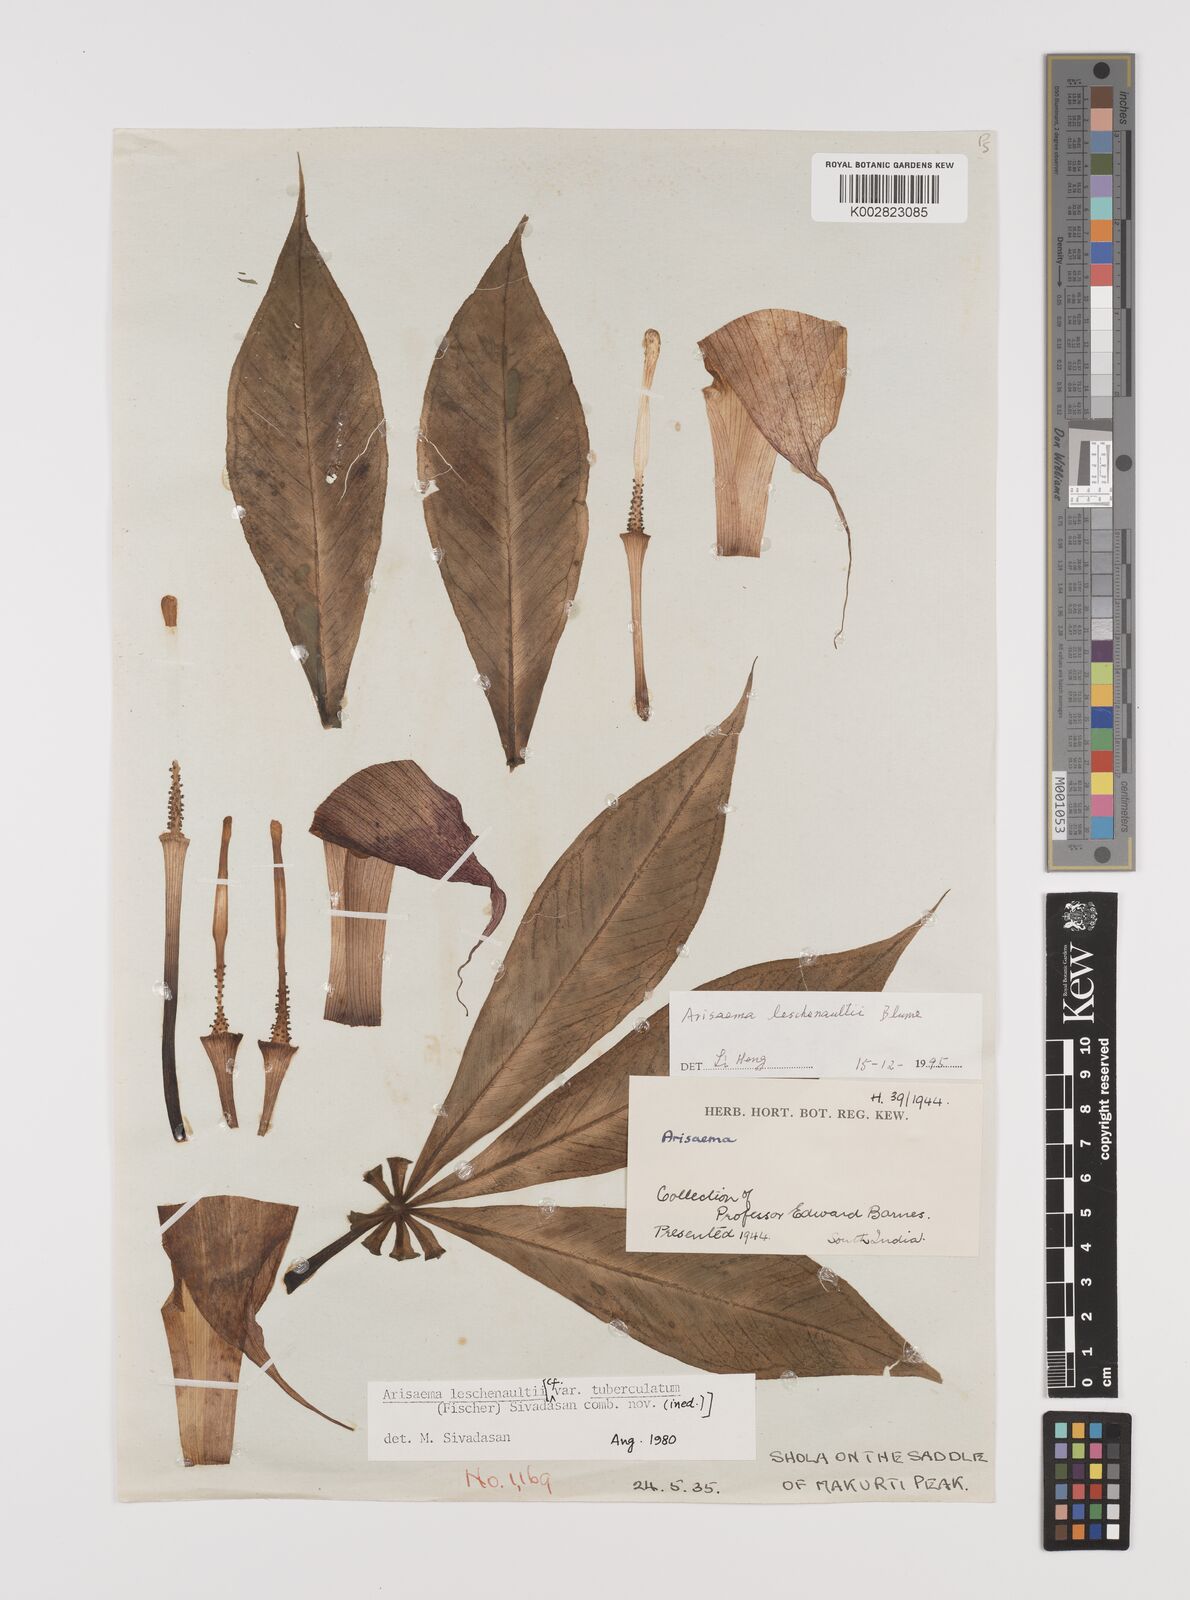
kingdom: Plantae
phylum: Tracheophyta
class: Liliopsida
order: Alismatales
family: Araceae
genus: Arisaema
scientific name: Arisaema leschenaultii
